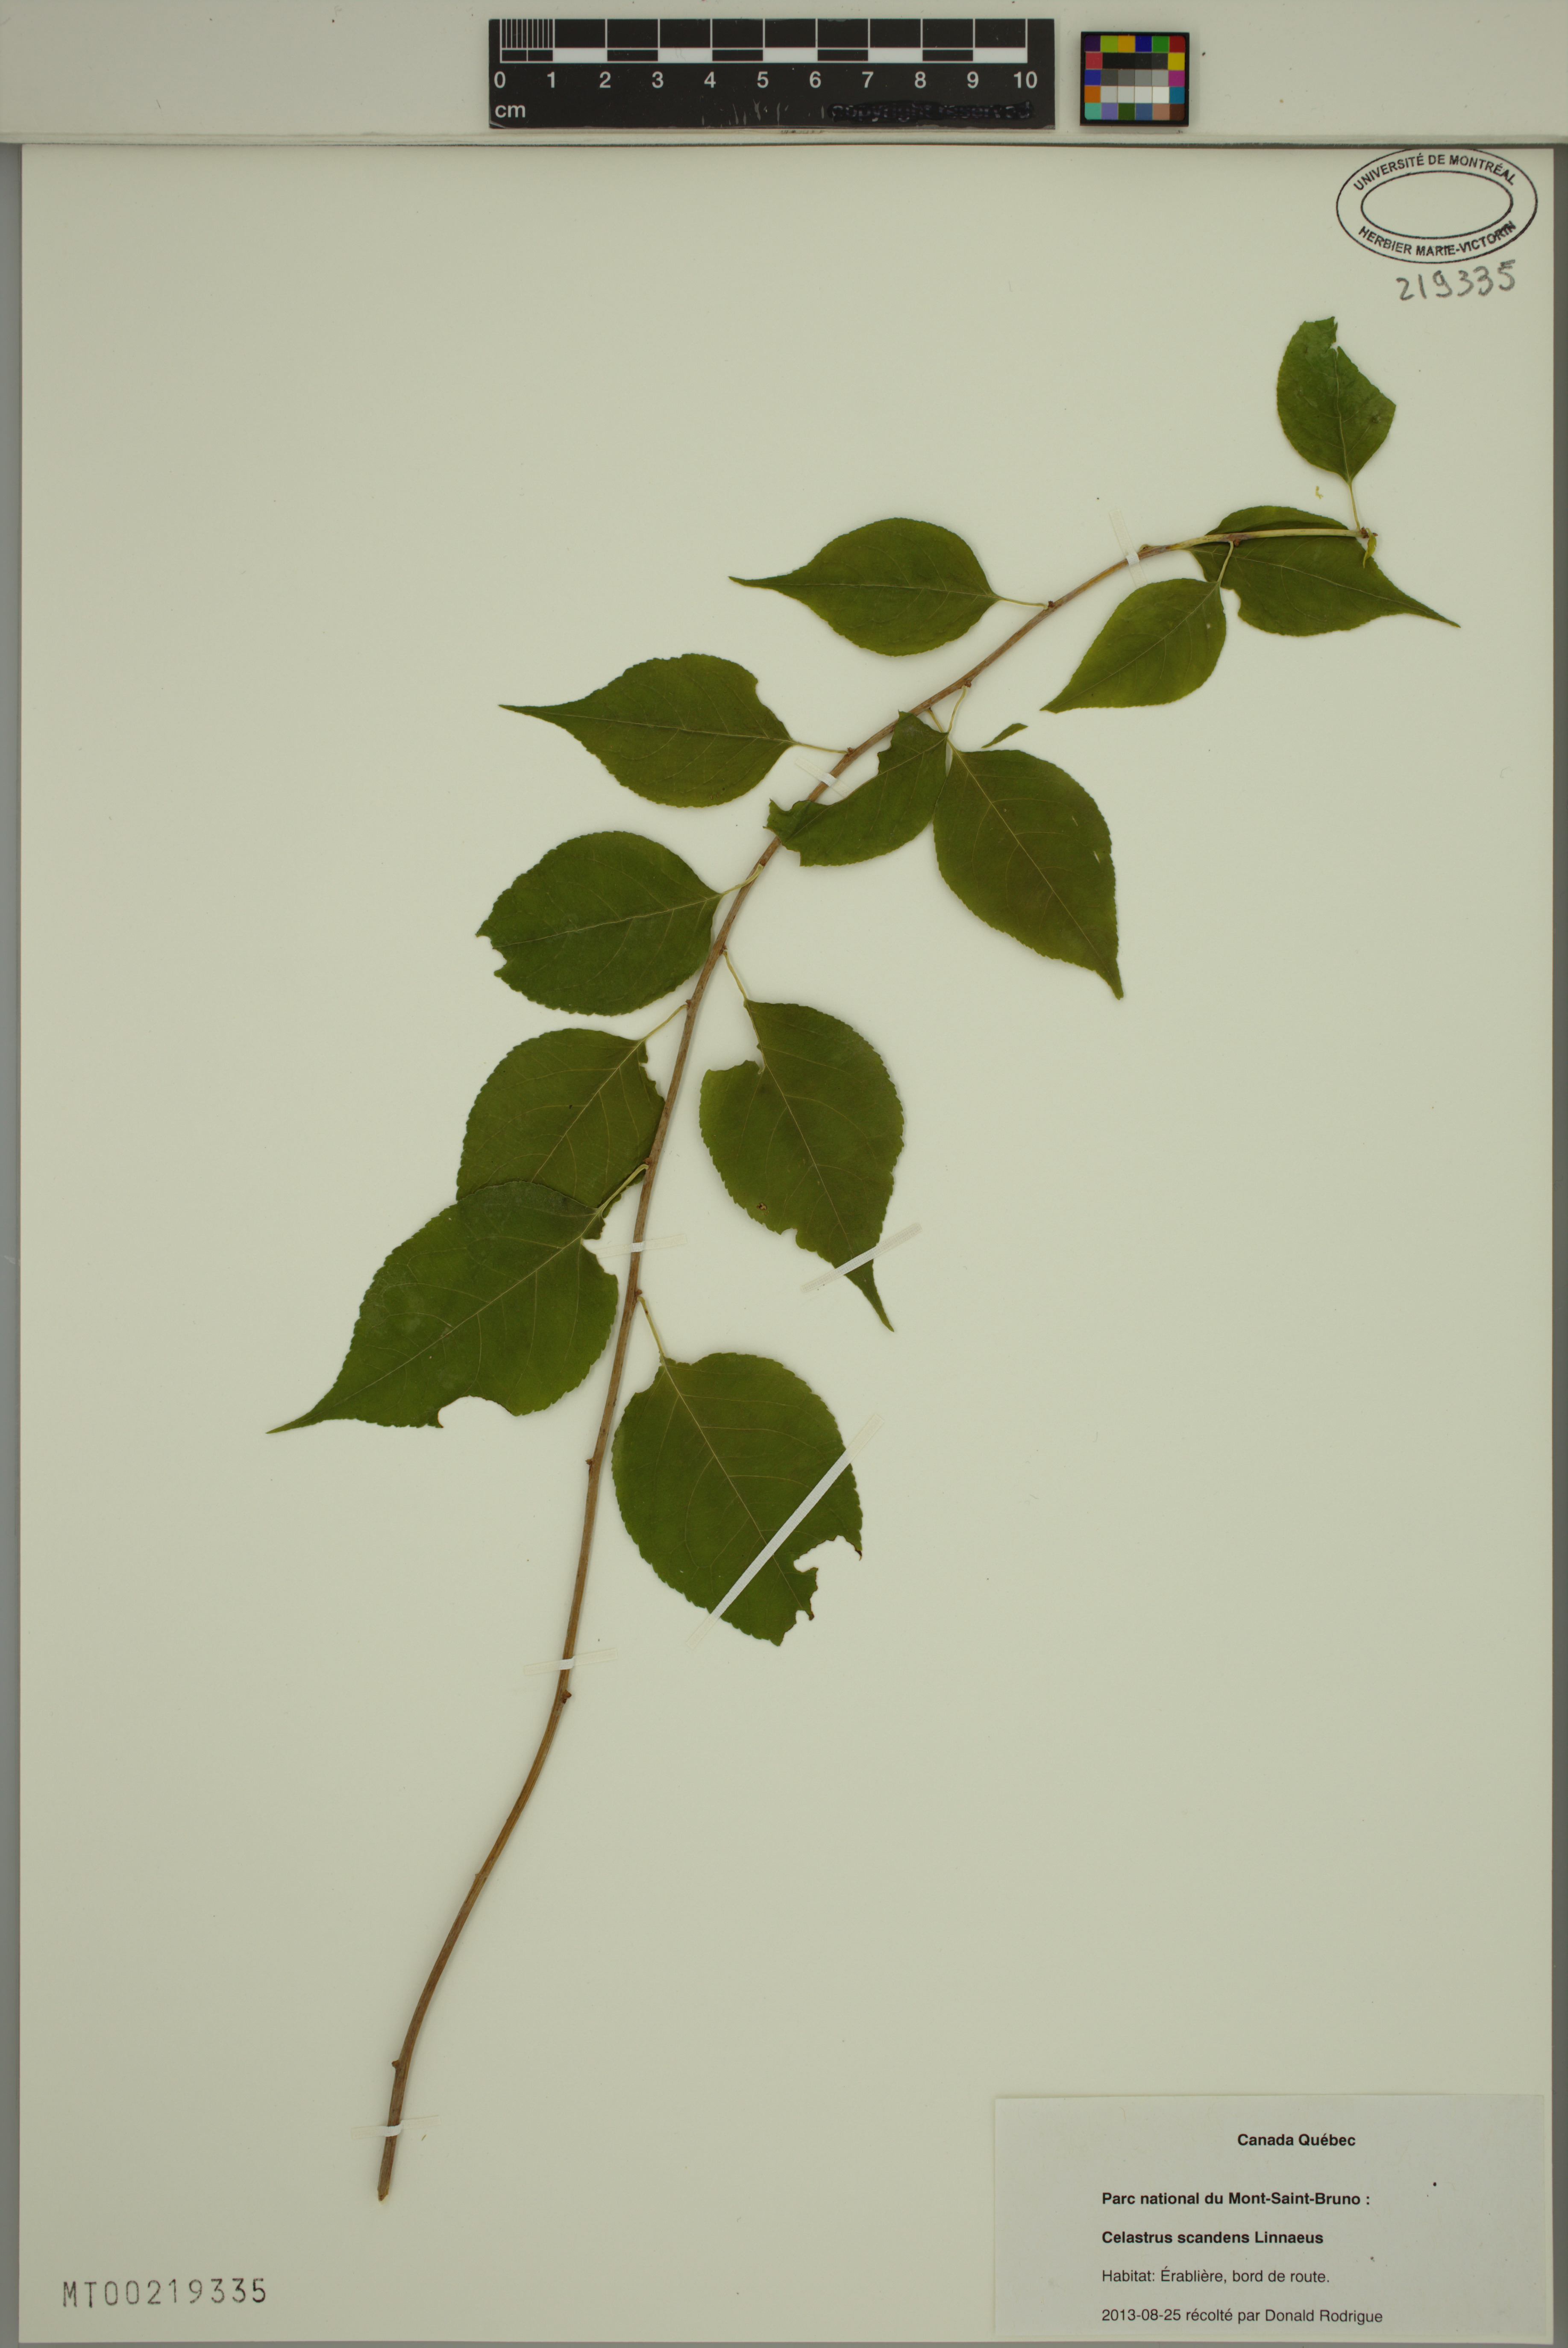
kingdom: Plantae
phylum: Tracheophyta
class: Magnoliopsida
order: Celastrales
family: Celastraceae
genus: Celastrus
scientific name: Celastrus scandens
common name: American bittersweet
